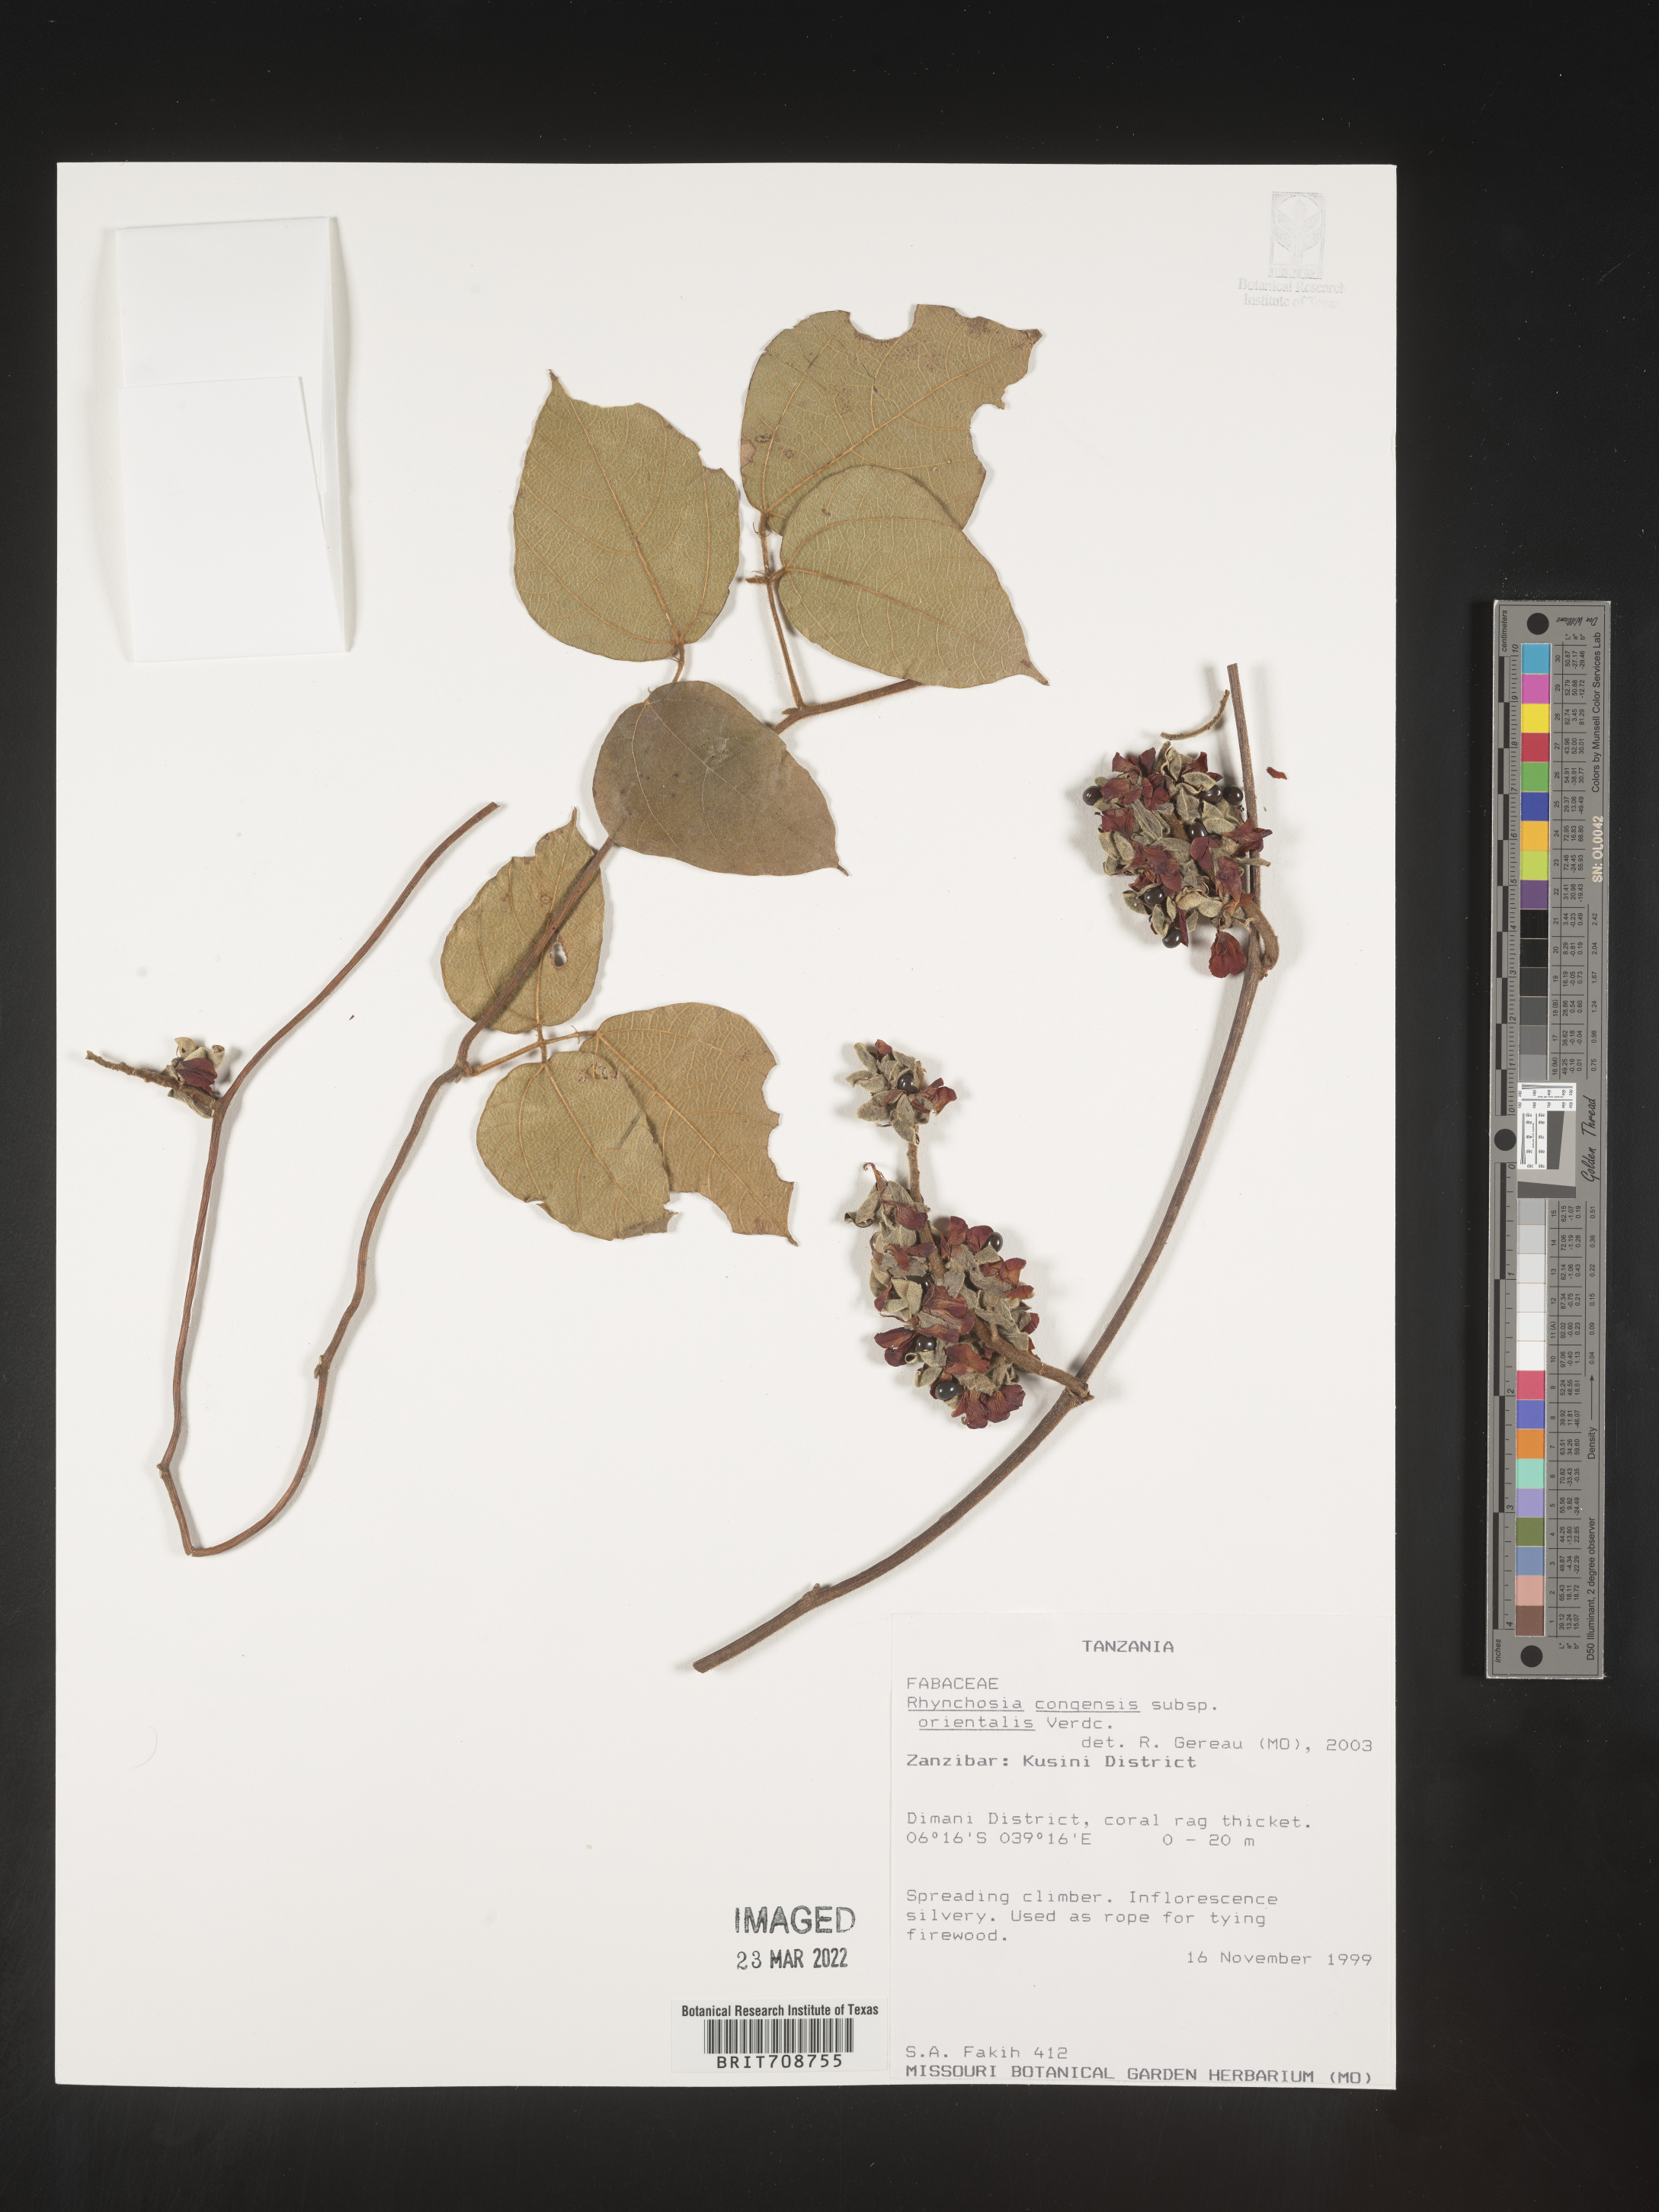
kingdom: Plantae
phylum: Tracheophyta
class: Magnoliopsida
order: Fabales
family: Fabaceae
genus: Rhynchosia
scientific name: Rhynchosia
